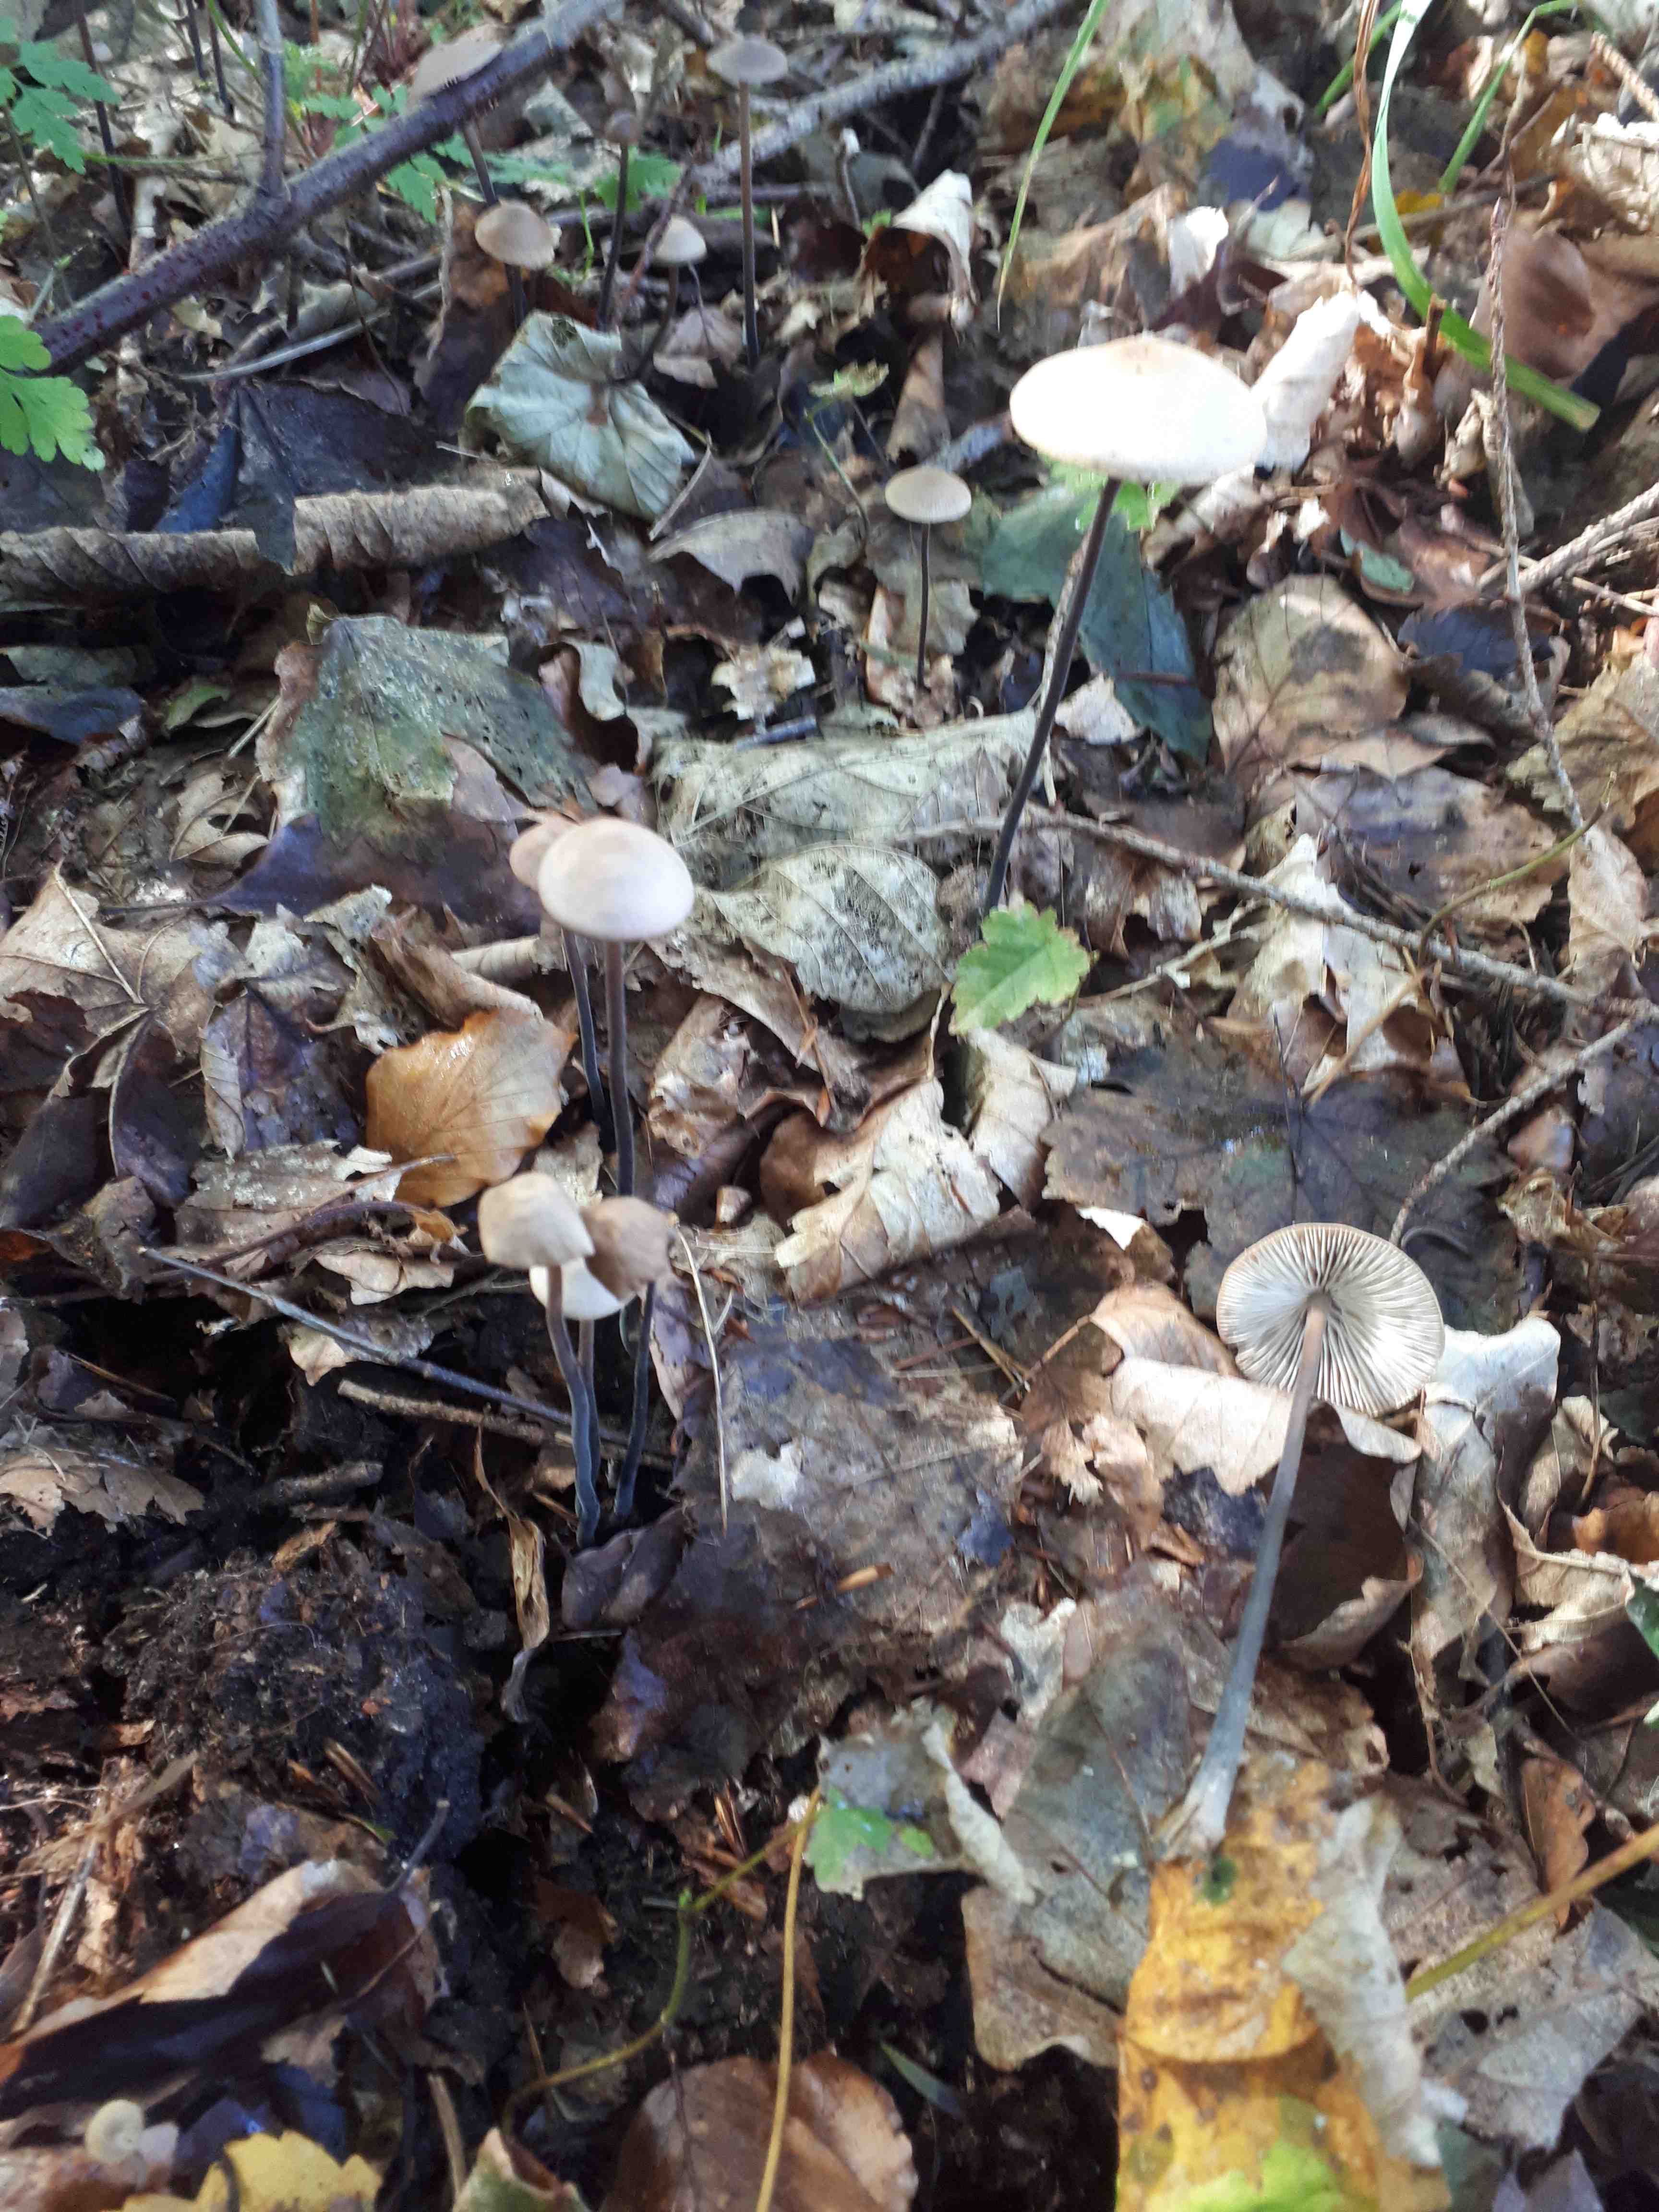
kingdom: Fungi
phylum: Basidiomycota
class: Agaricomycetes
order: Agaricales
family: Omphalotaceae
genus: Mycetinis
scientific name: Mycetinis alliaceus
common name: stor løghat
